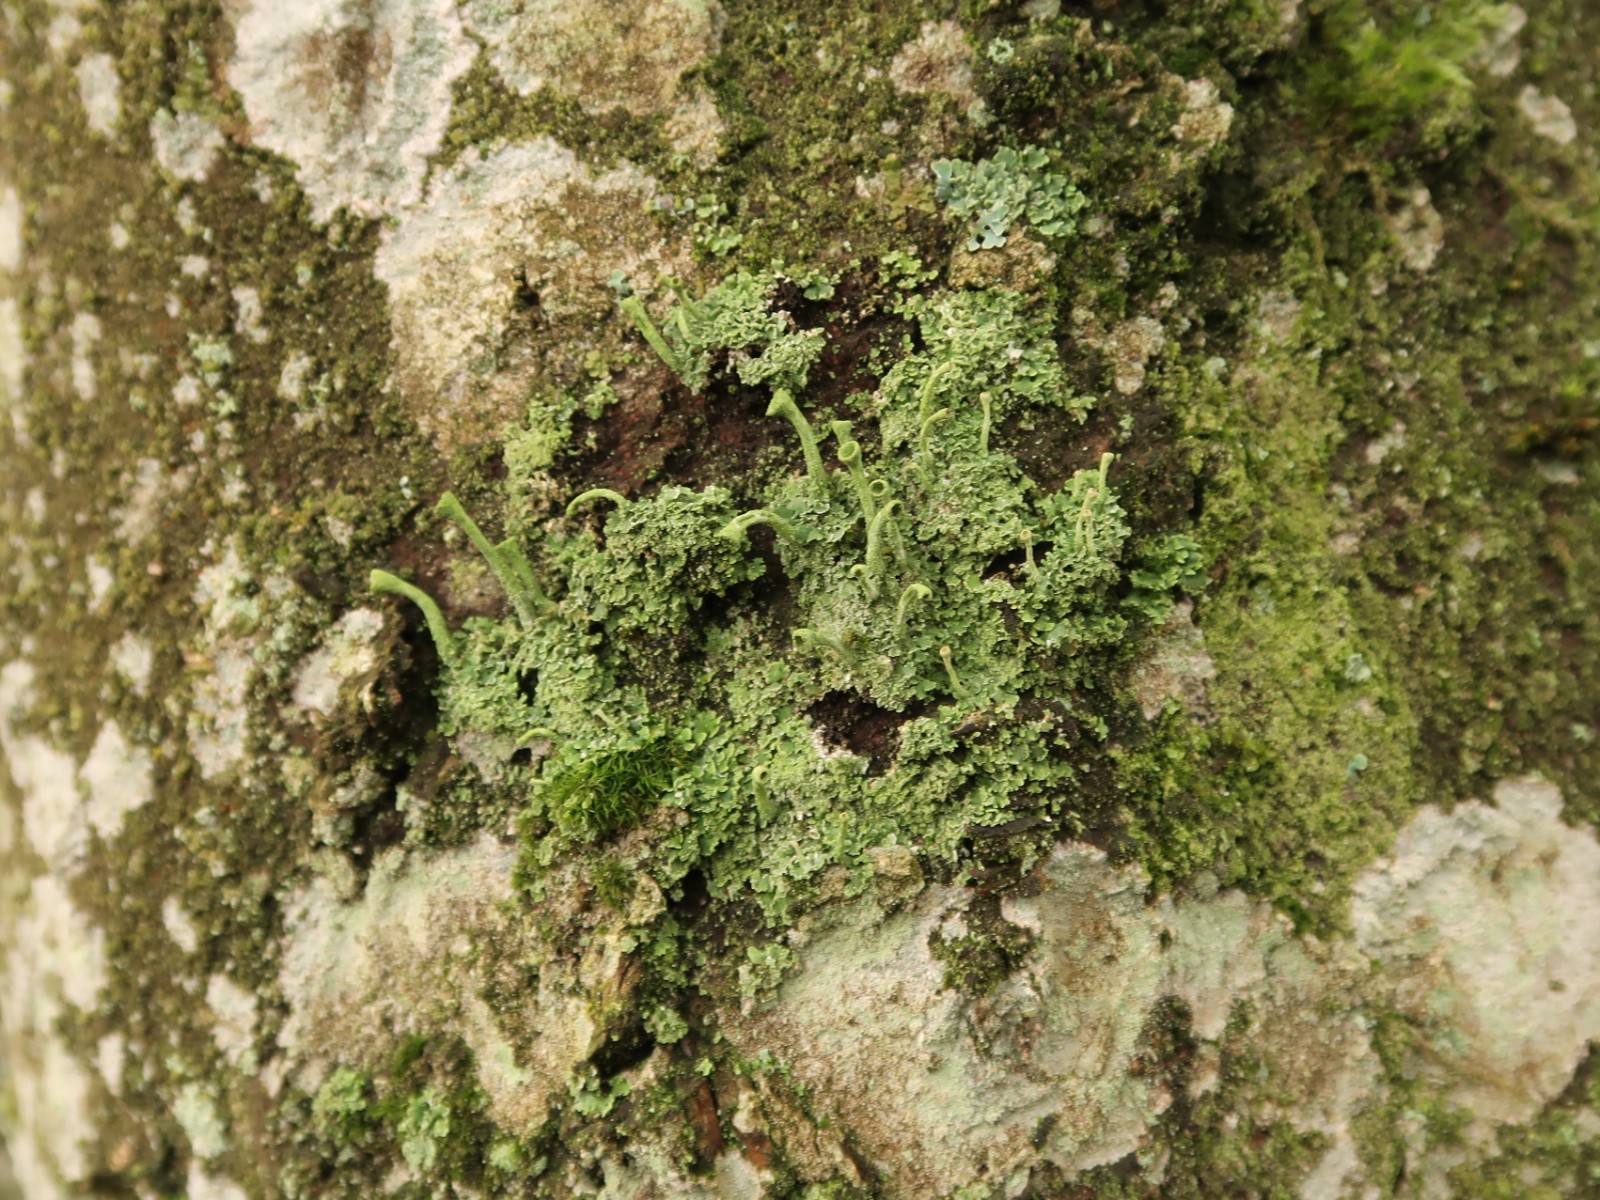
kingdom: Fungi
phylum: Ascomycota
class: Lecanoromycetes
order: Lecanorales
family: Cladoniaceae
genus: Cladonia
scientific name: Cladonia fimbriata
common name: bleggrøn bægerlav
